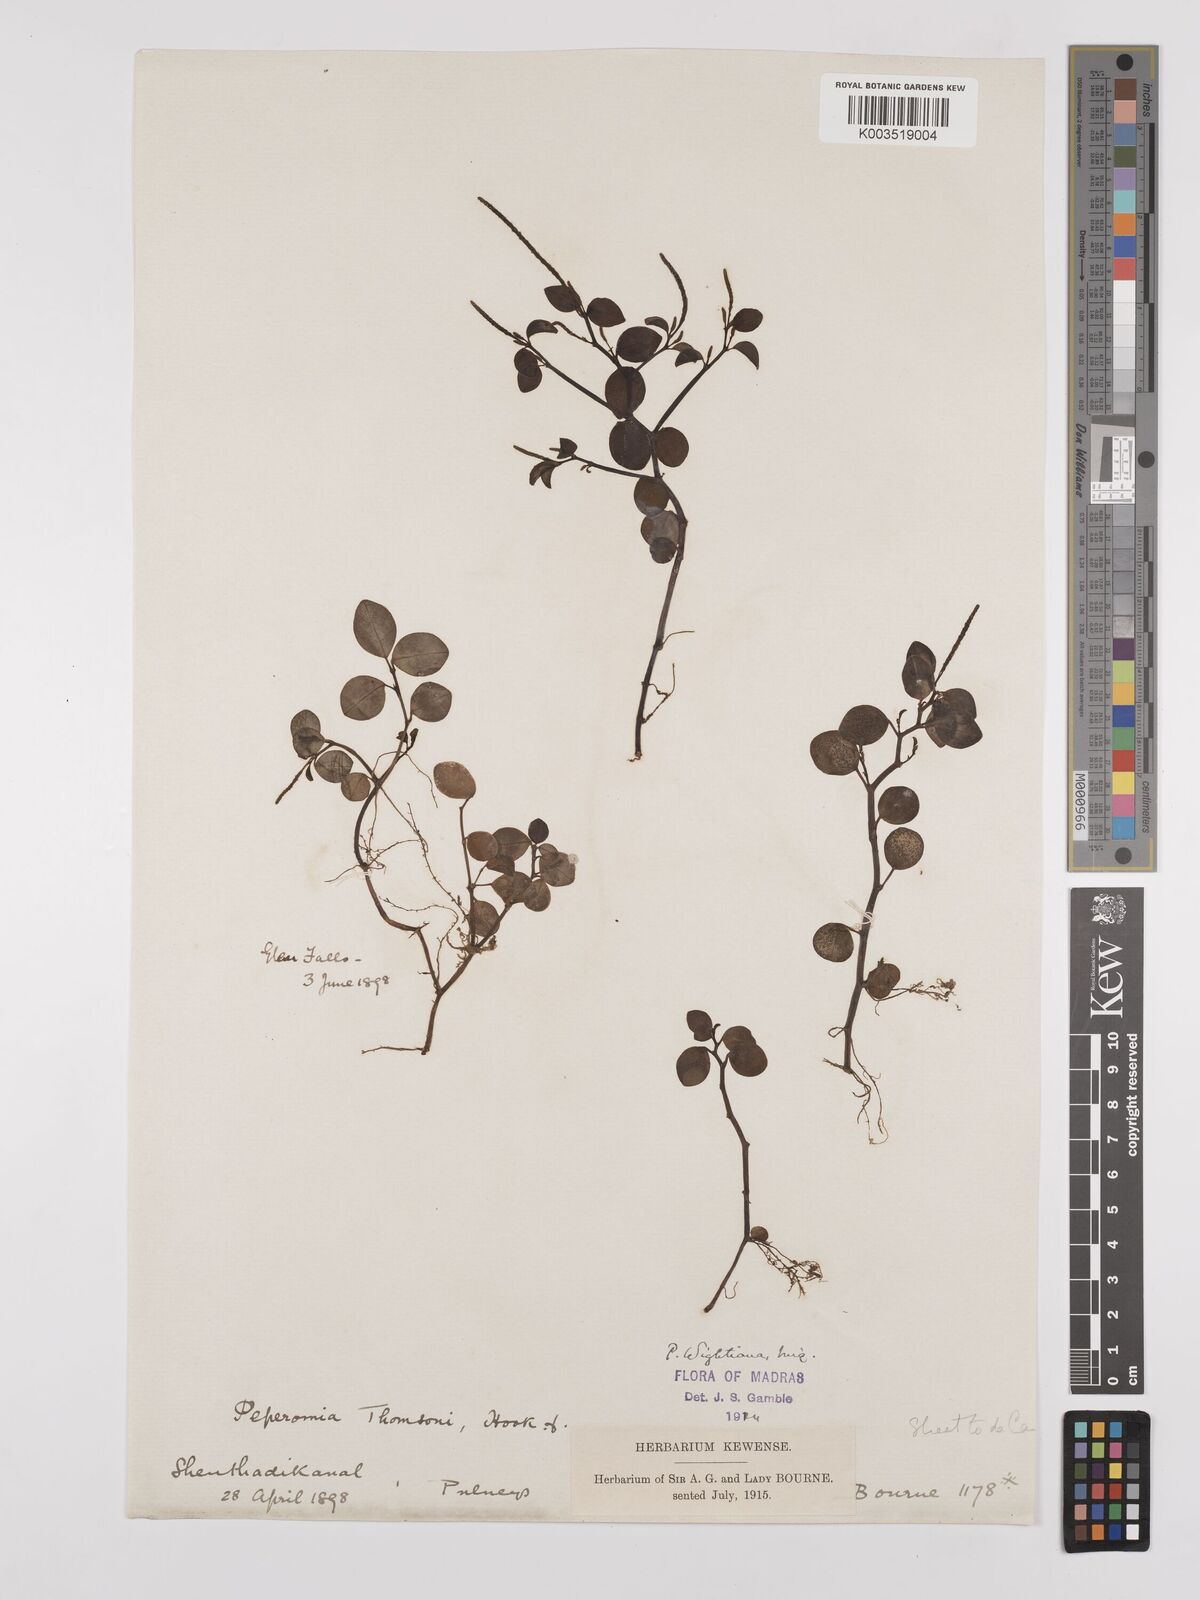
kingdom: Plantae
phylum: Tracheophyta
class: Magnoliopsida
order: Piperales
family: Piperaceae
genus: Peperomia
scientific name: Peperomia wightiana
